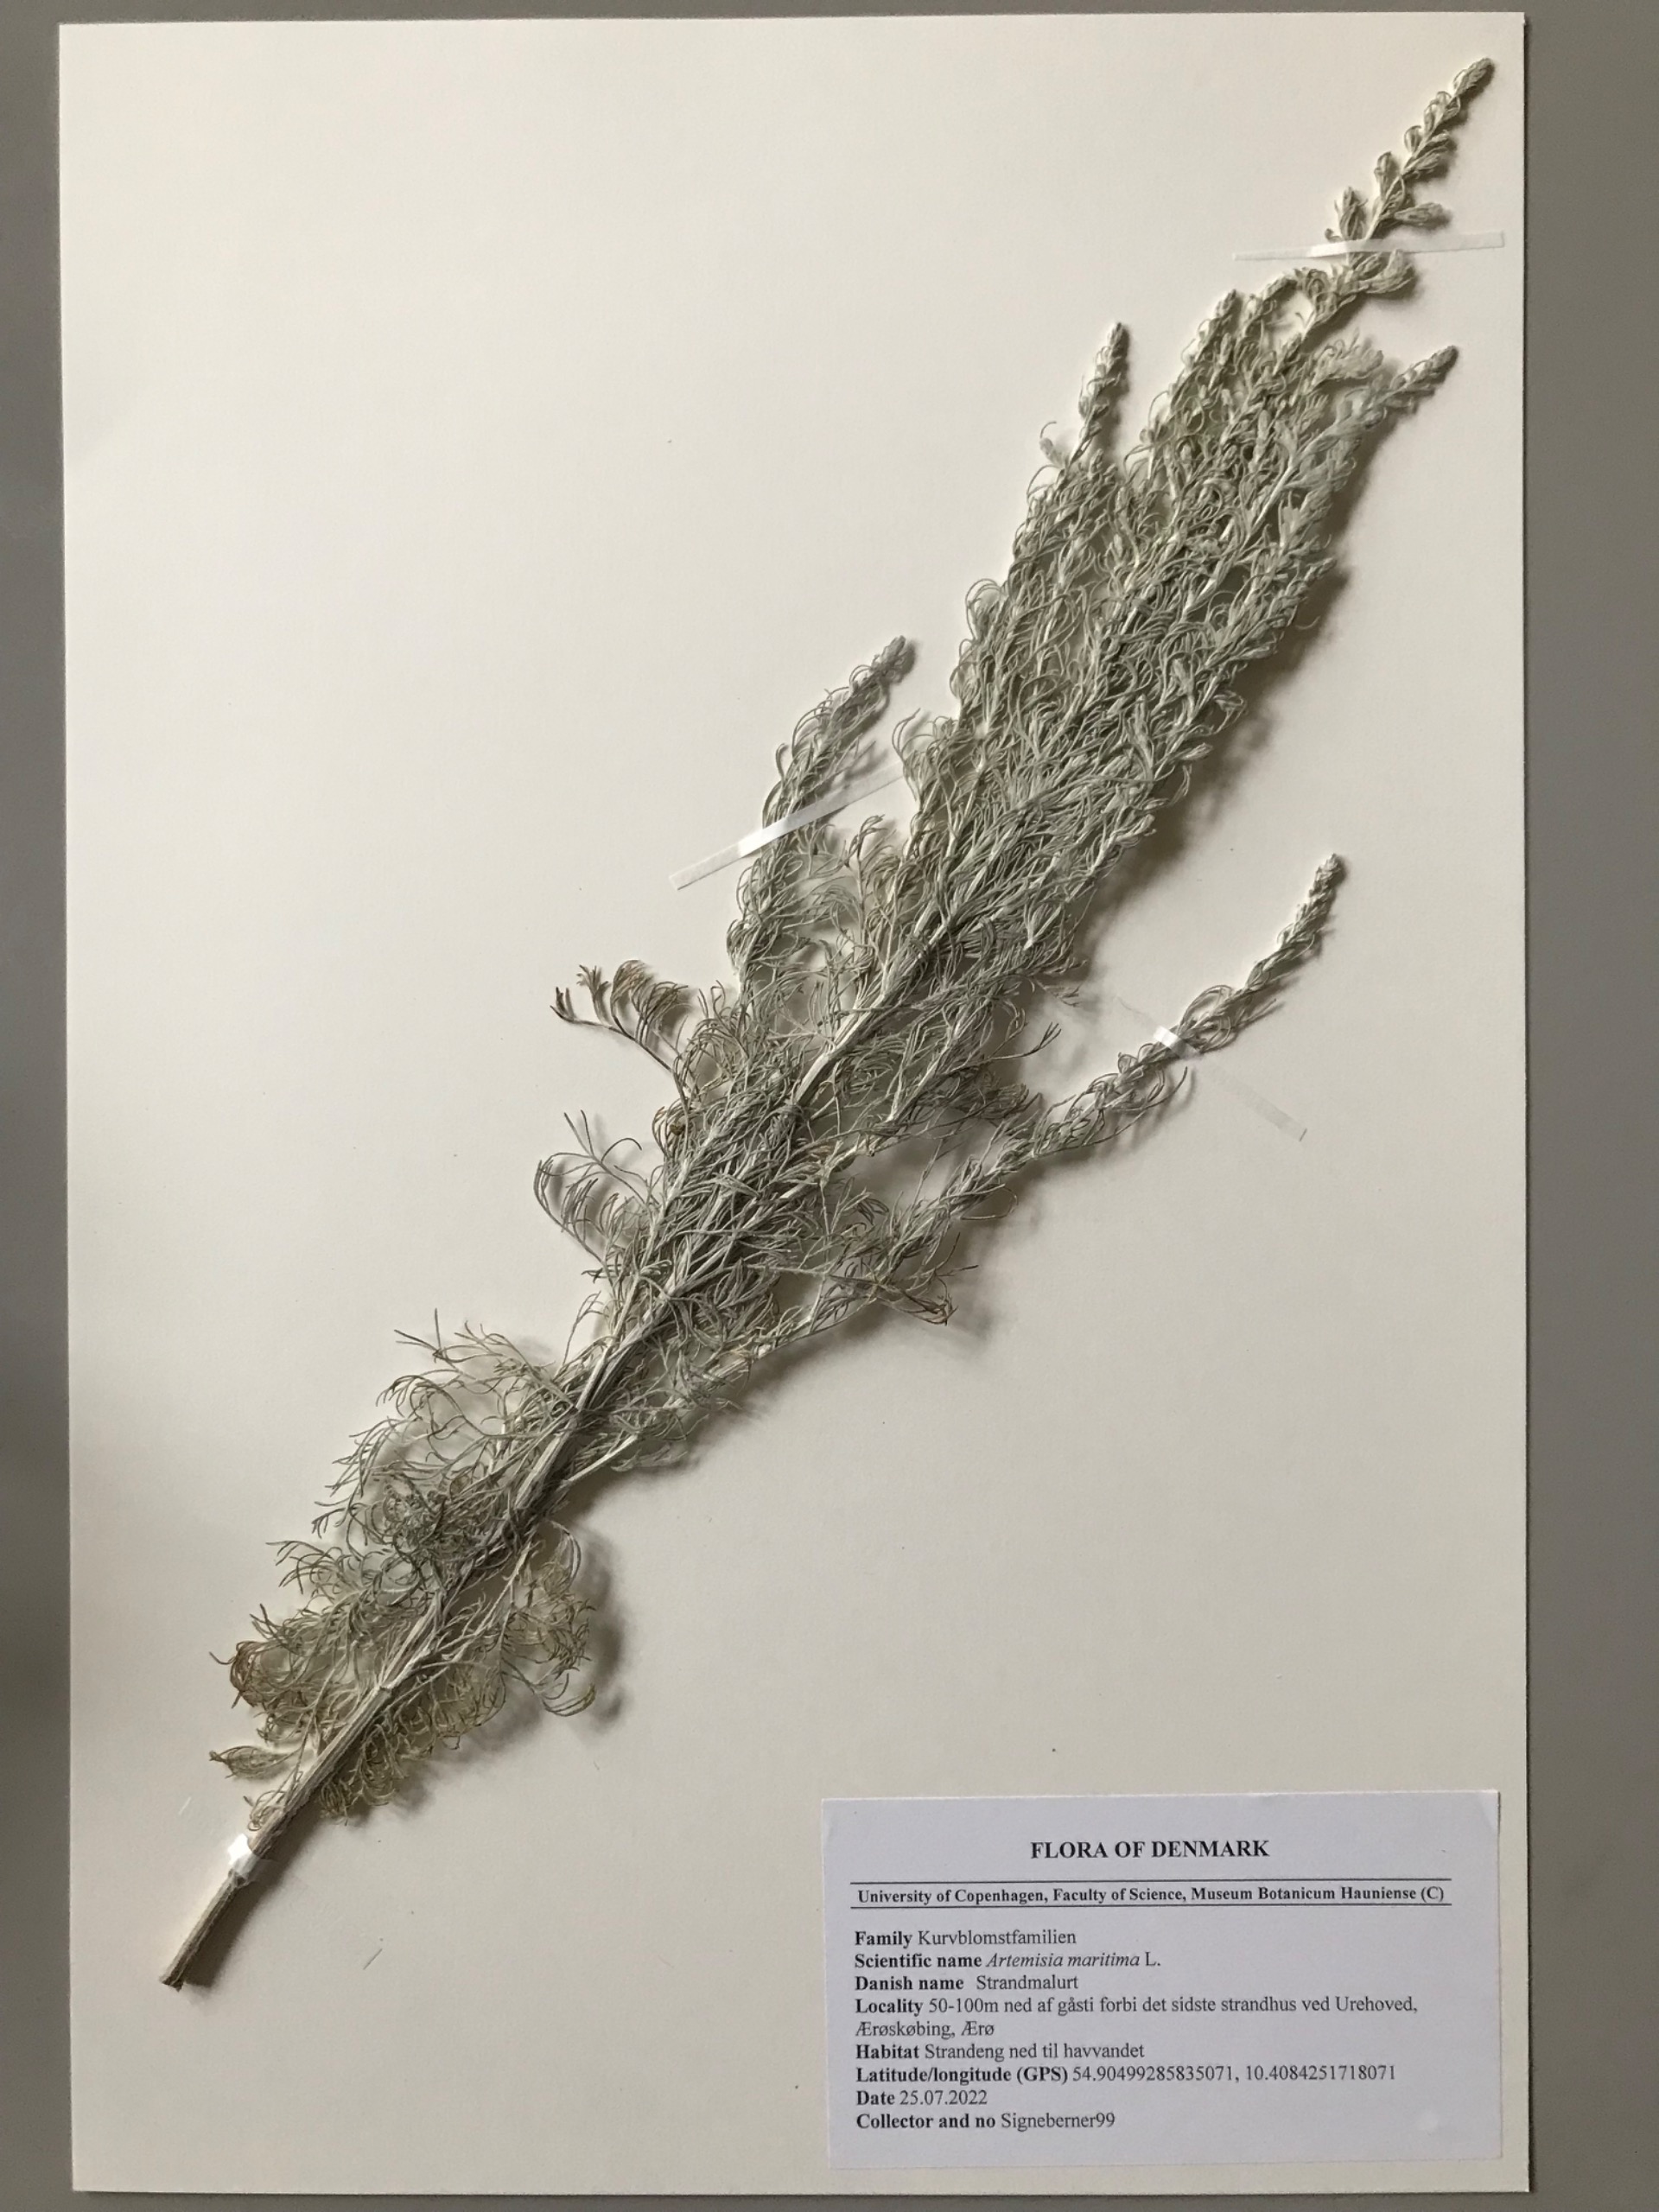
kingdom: Plantae
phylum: Tracheophyta
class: Magnoliopsida
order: Asterales
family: Asteraceae
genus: Artemisia
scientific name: Artemisia maritima
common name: Strandmalurt
